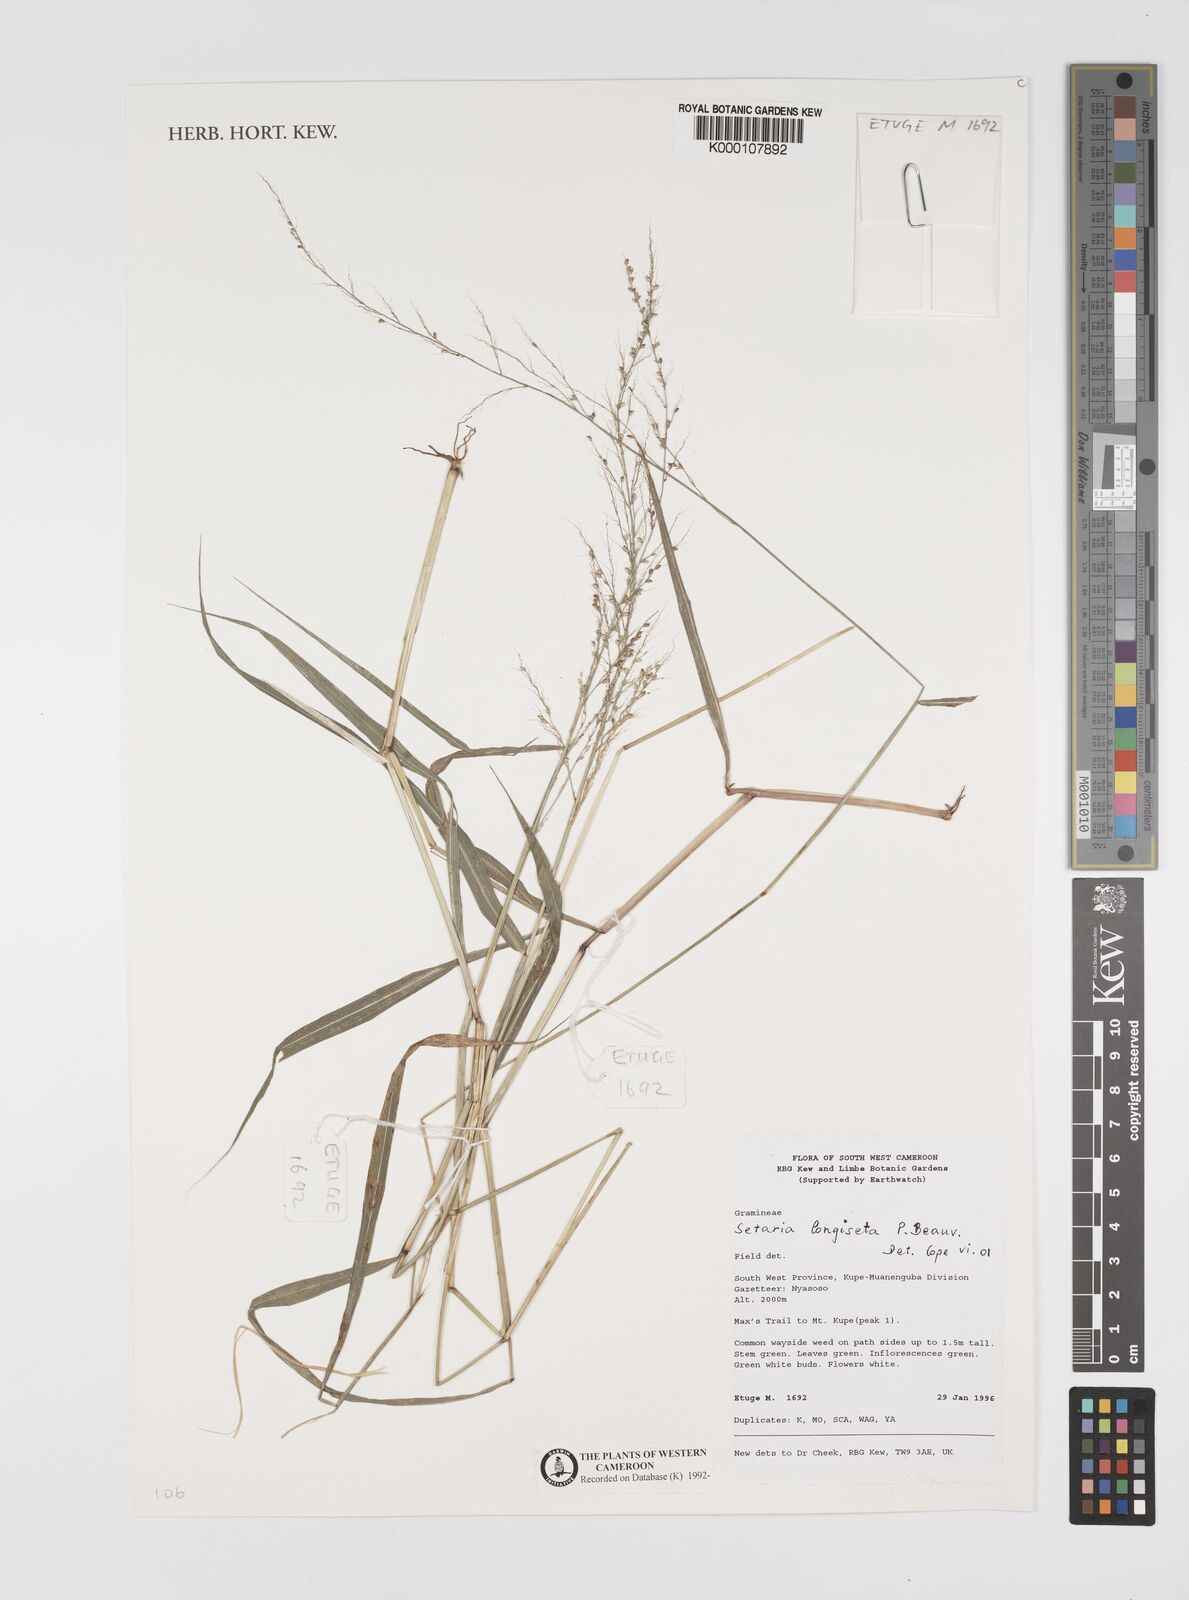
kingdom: Plantae
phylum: Tracheophyta
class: Liliopsida
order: Poales
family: Poaceae
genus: Setaria
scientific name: Setaria longiseta
